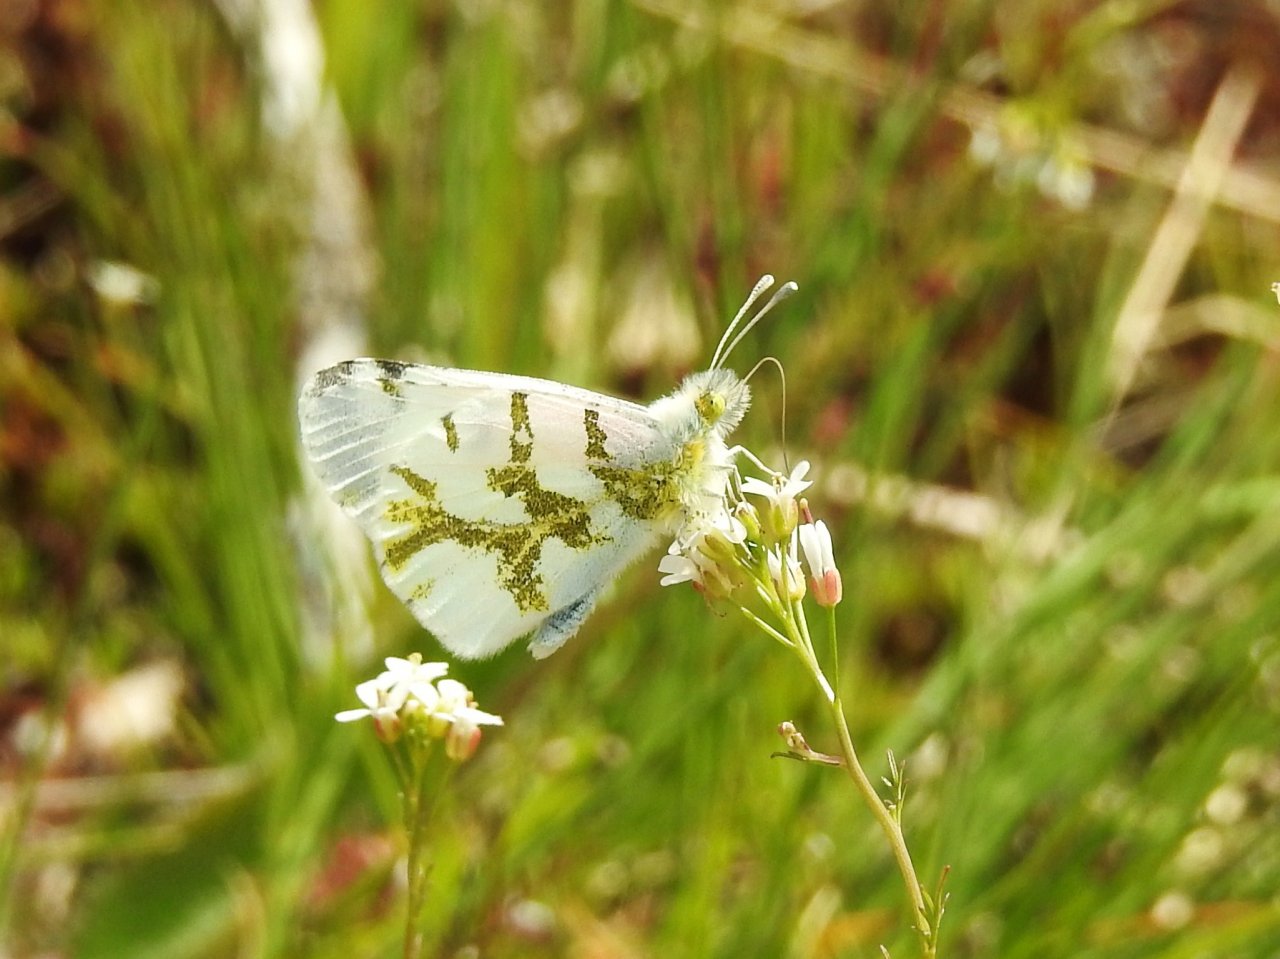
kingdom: Animalia
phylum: Arthropoda
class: Insecta
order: Lepidoptera
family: Pieridae
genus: Euchloe
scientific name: Euchloe olympia
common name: Olympia Marble
